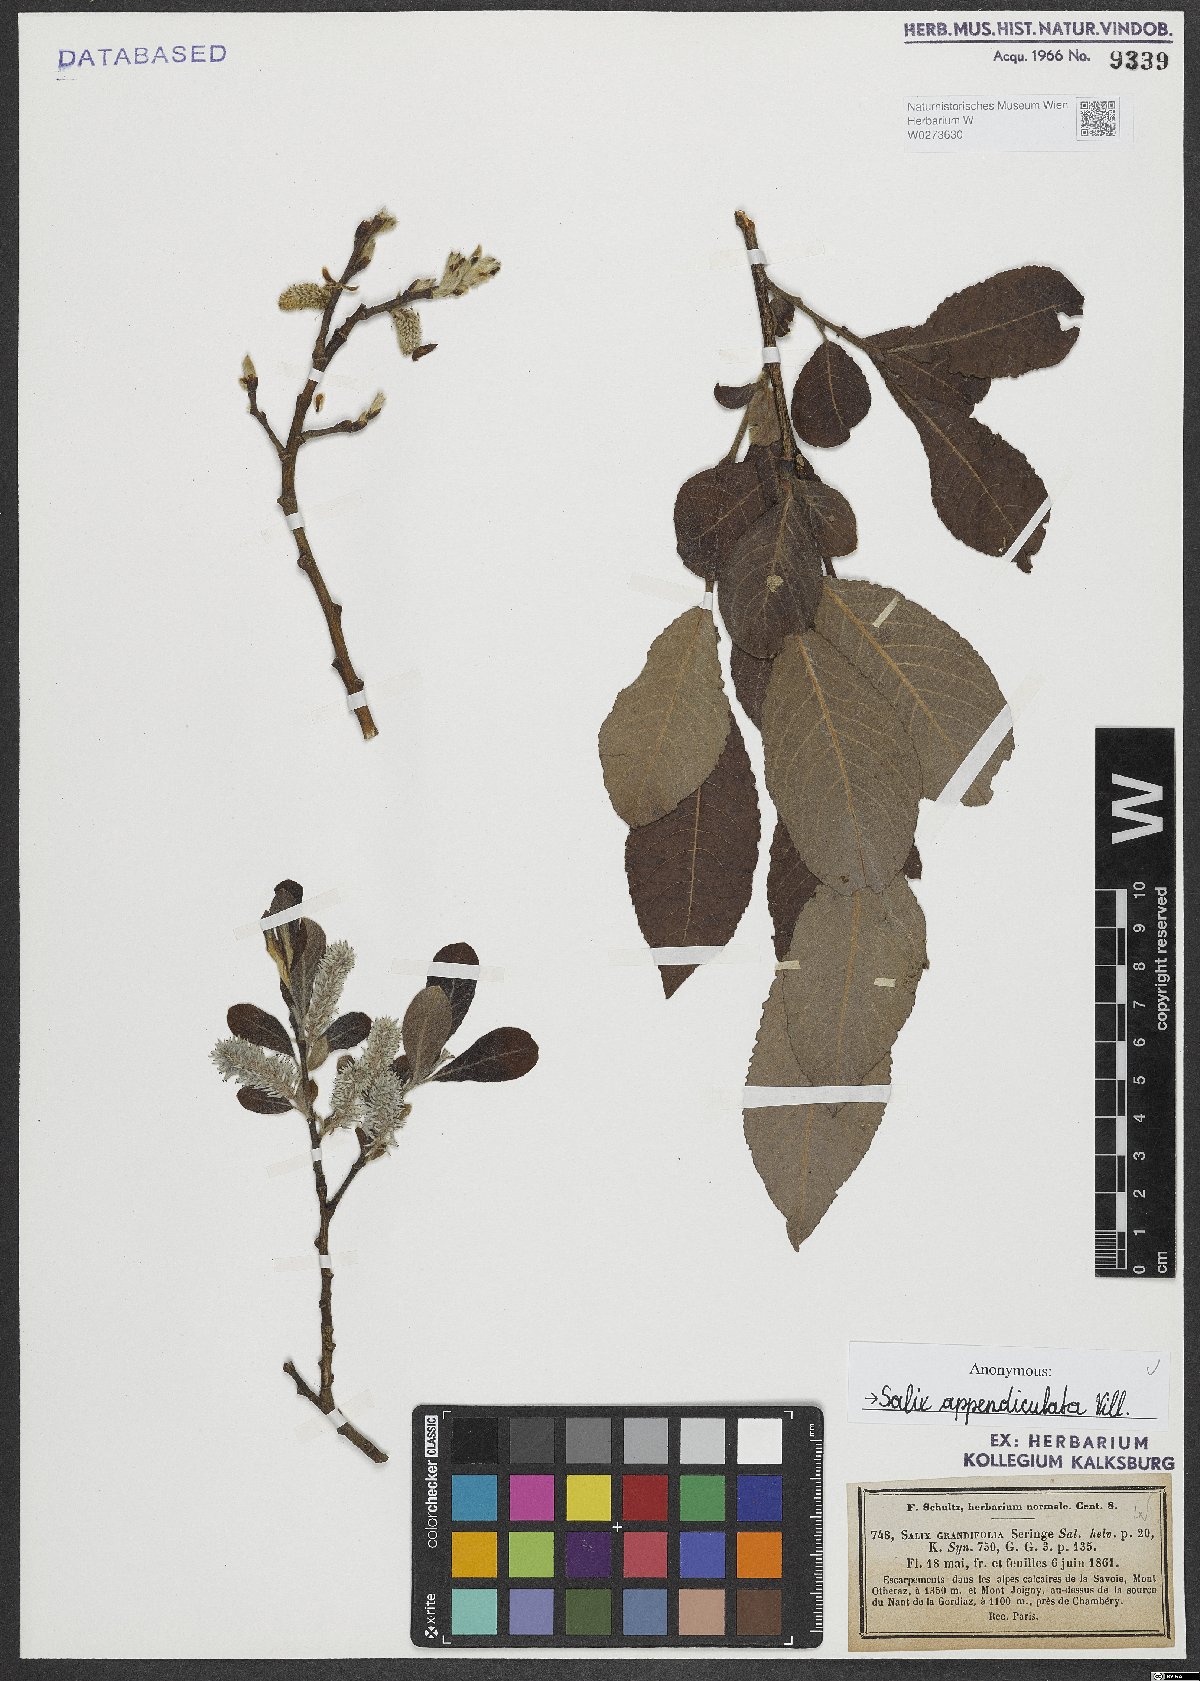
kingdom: Plantae
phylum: Tracheophyta
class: Magnoliopsida
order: Malpighiales
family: Salicaceae
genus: Salix
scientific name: Salix appendiculata
